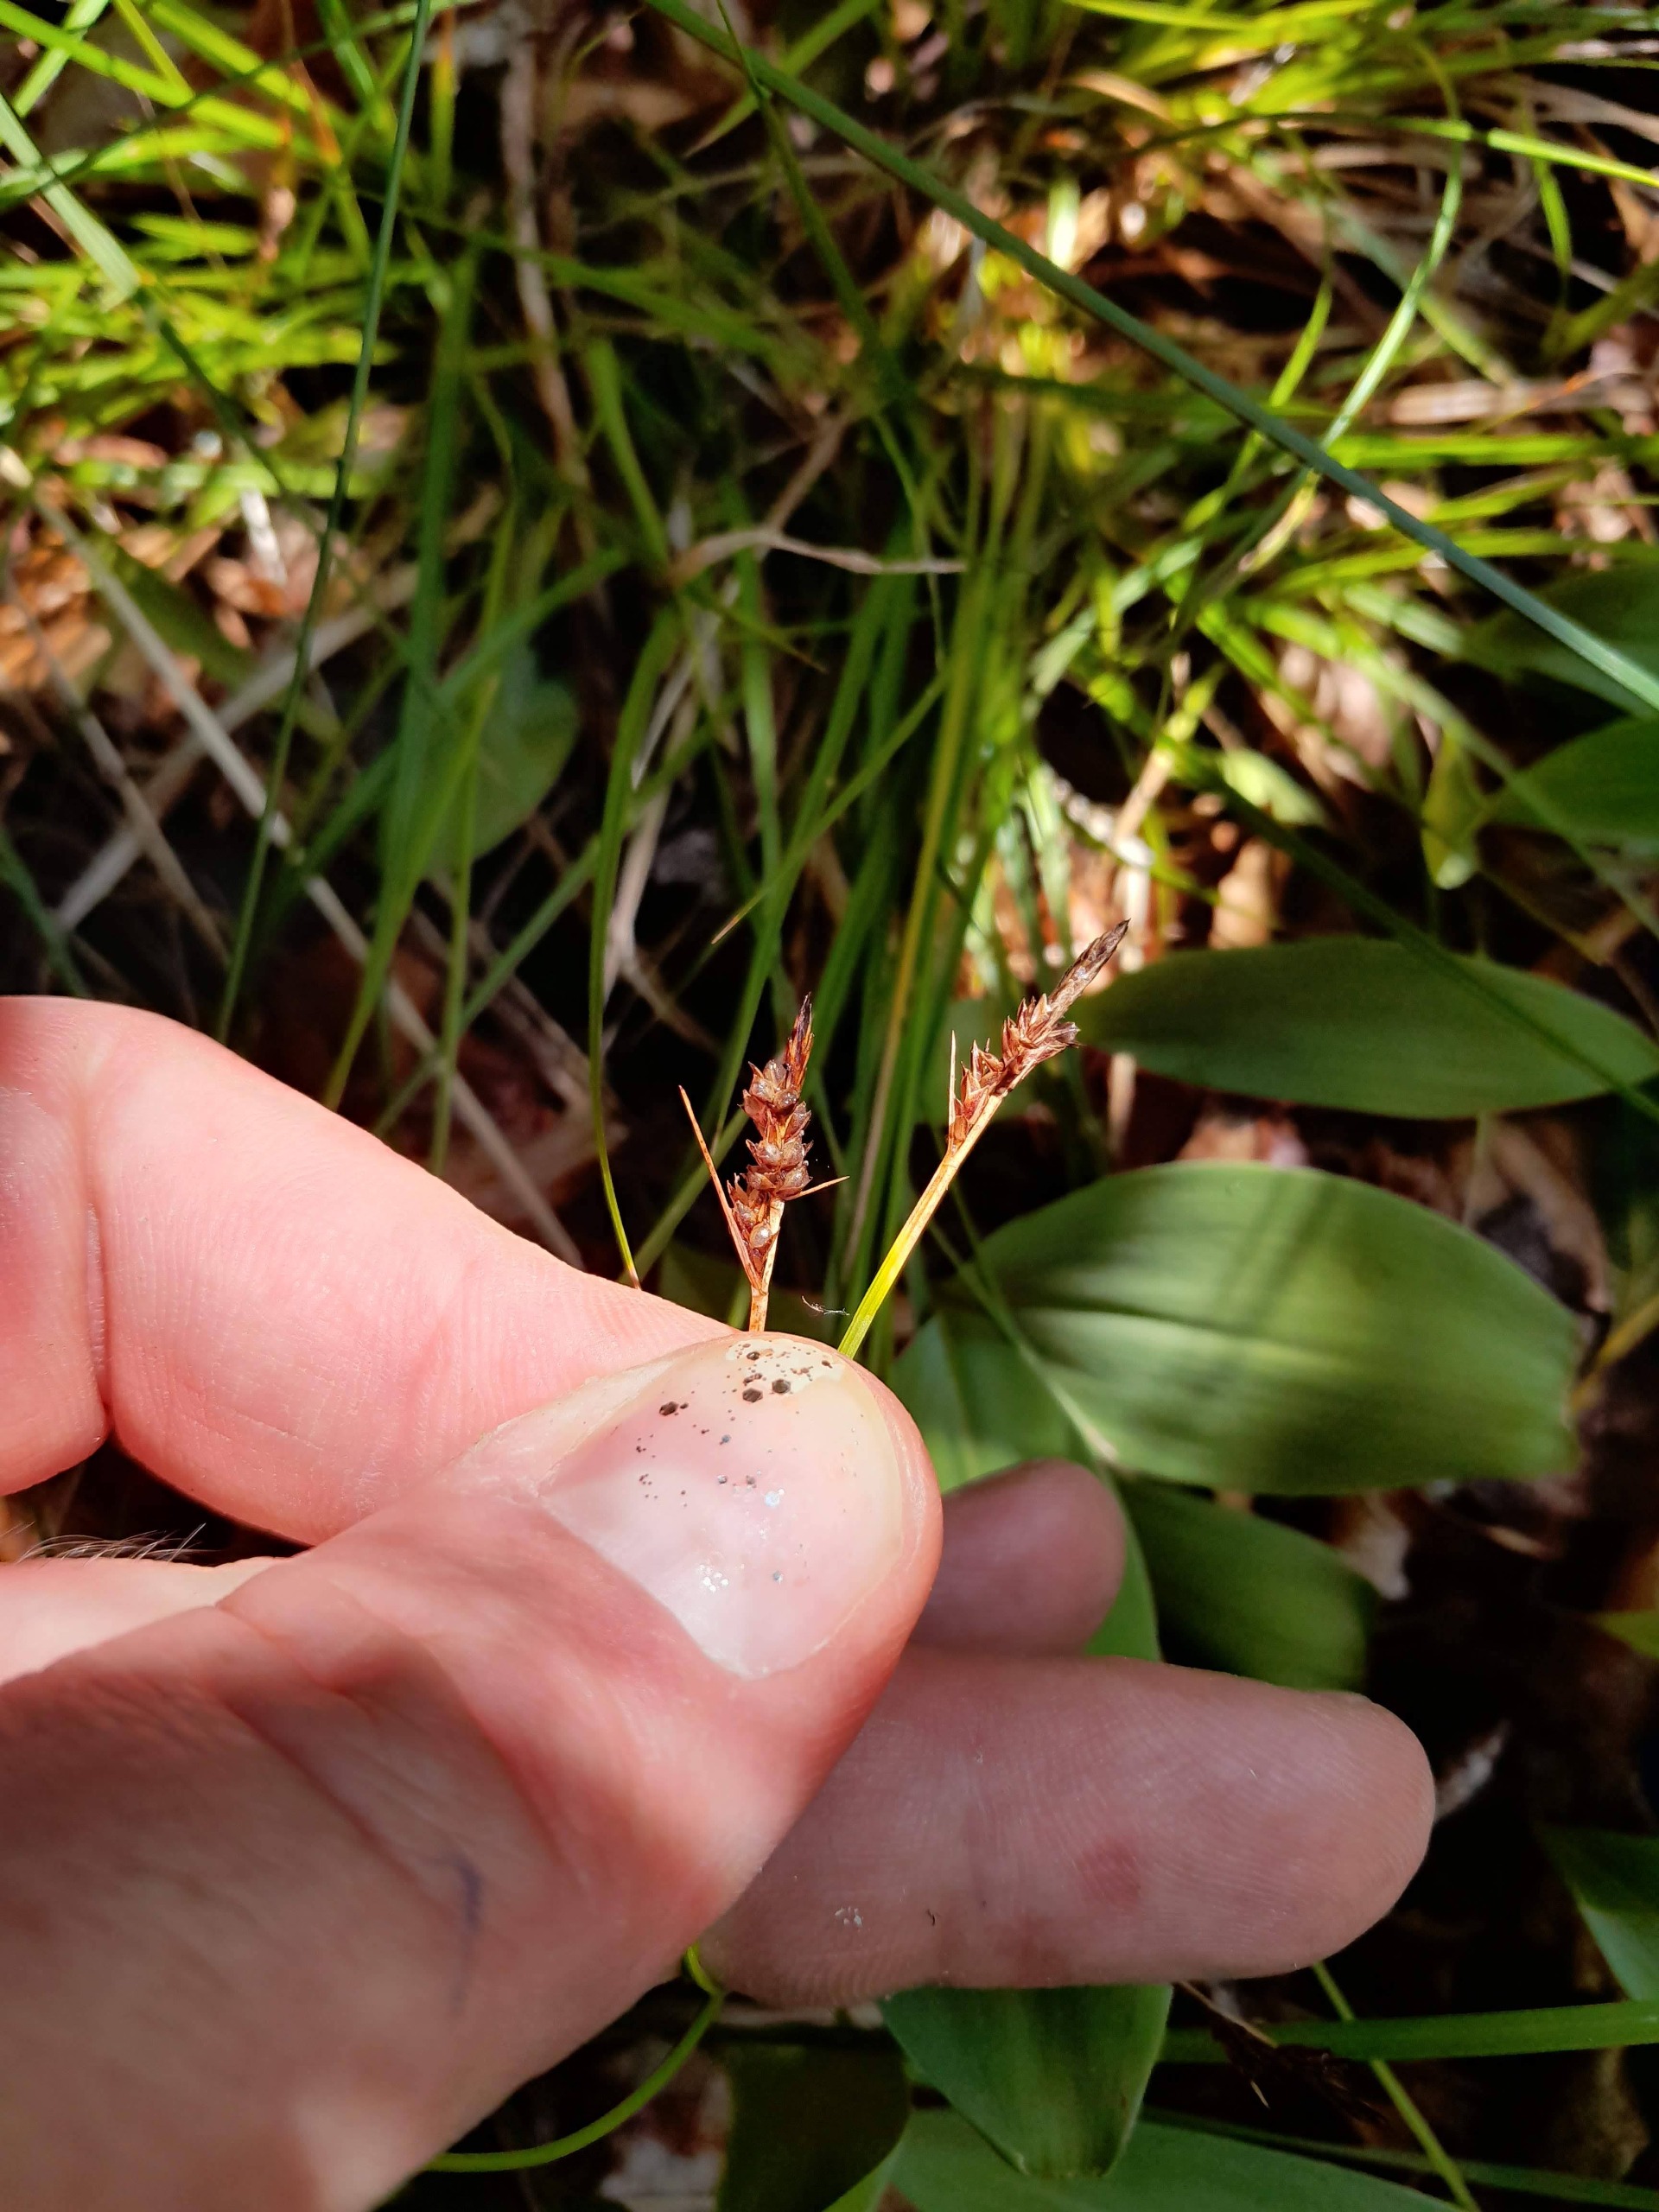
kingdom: Plantae
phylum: Tracheophyta
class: Liliopsida
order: Poales
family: Cyperaceae
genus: Carex
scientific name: Carex pilulifera
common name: Pille-star
